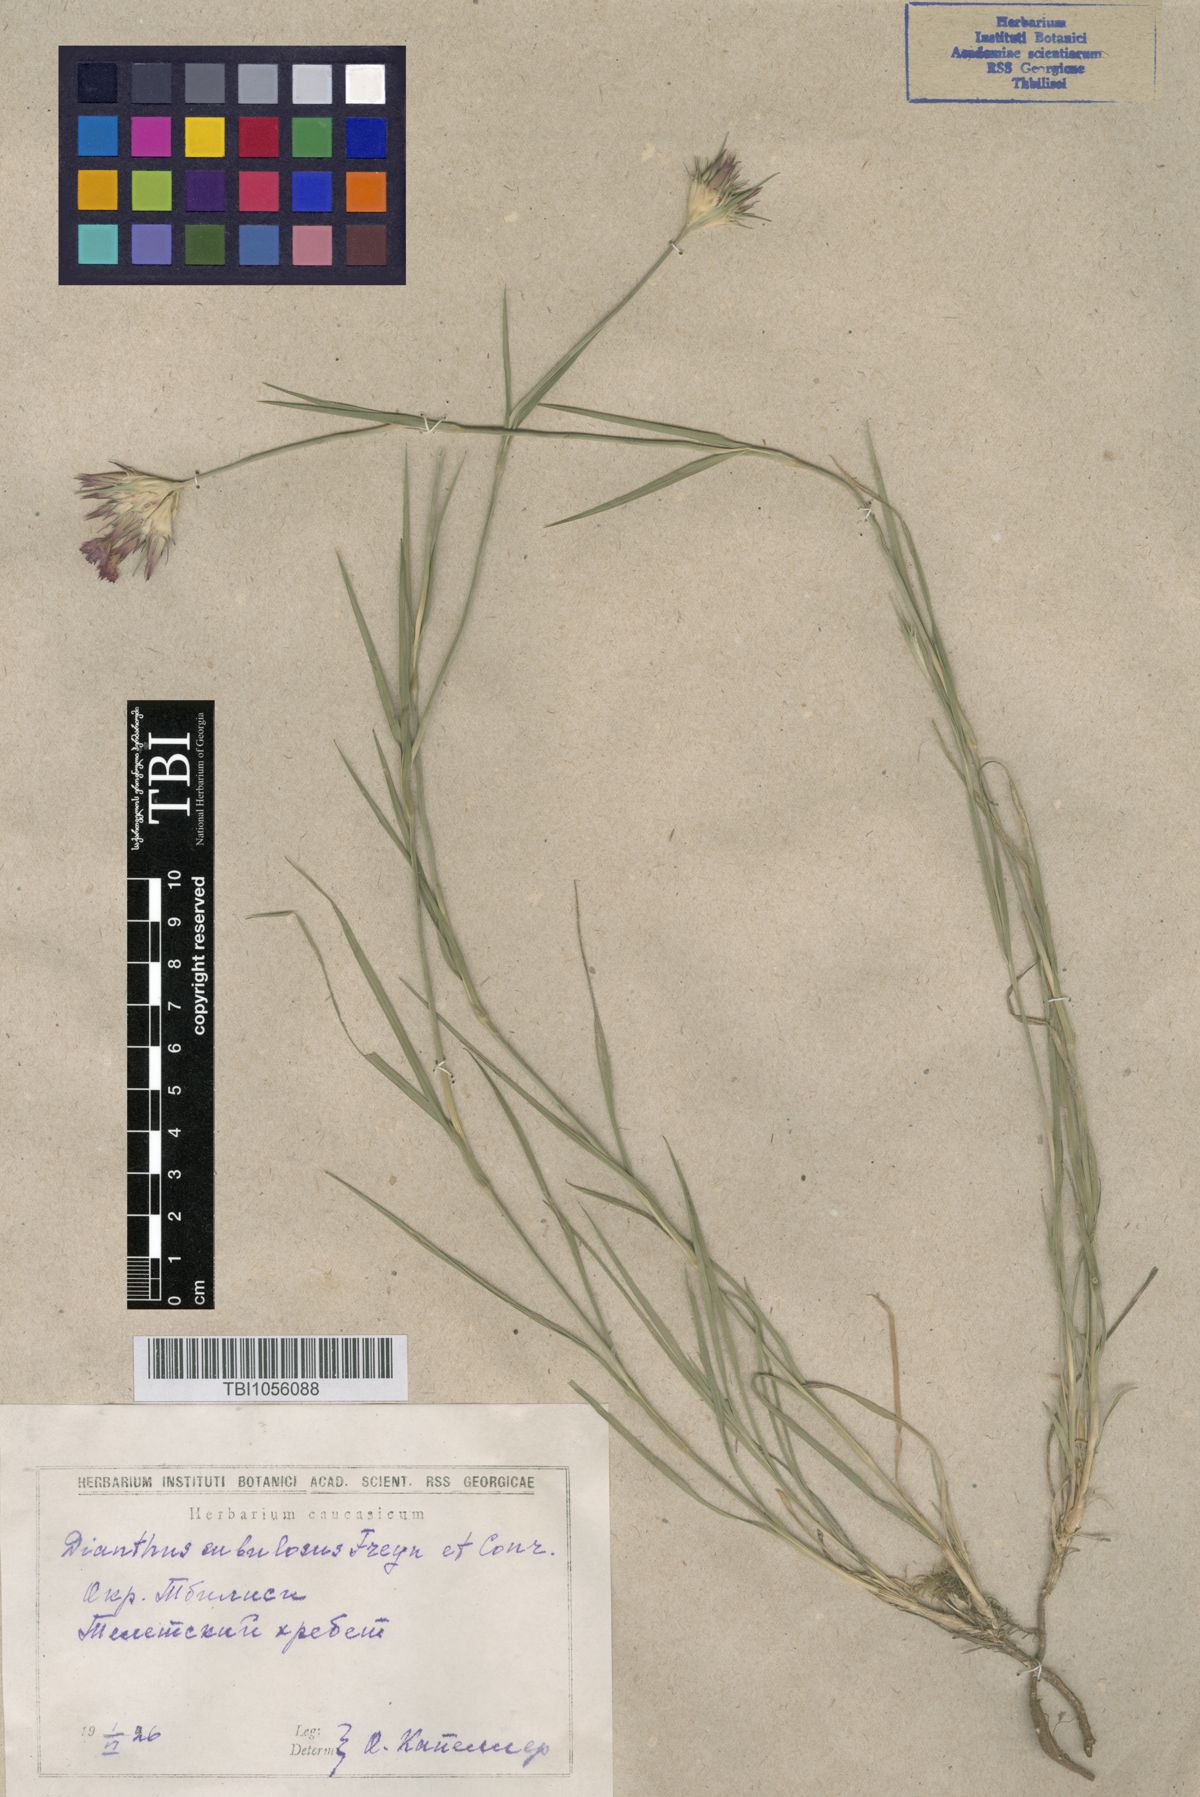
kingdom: Plantae
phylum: Tracheophyta
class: Magnoliopsida
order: Caryophyllales
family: Caryophyllaceae
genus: Dianthus
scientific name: Dianthus subulosus
